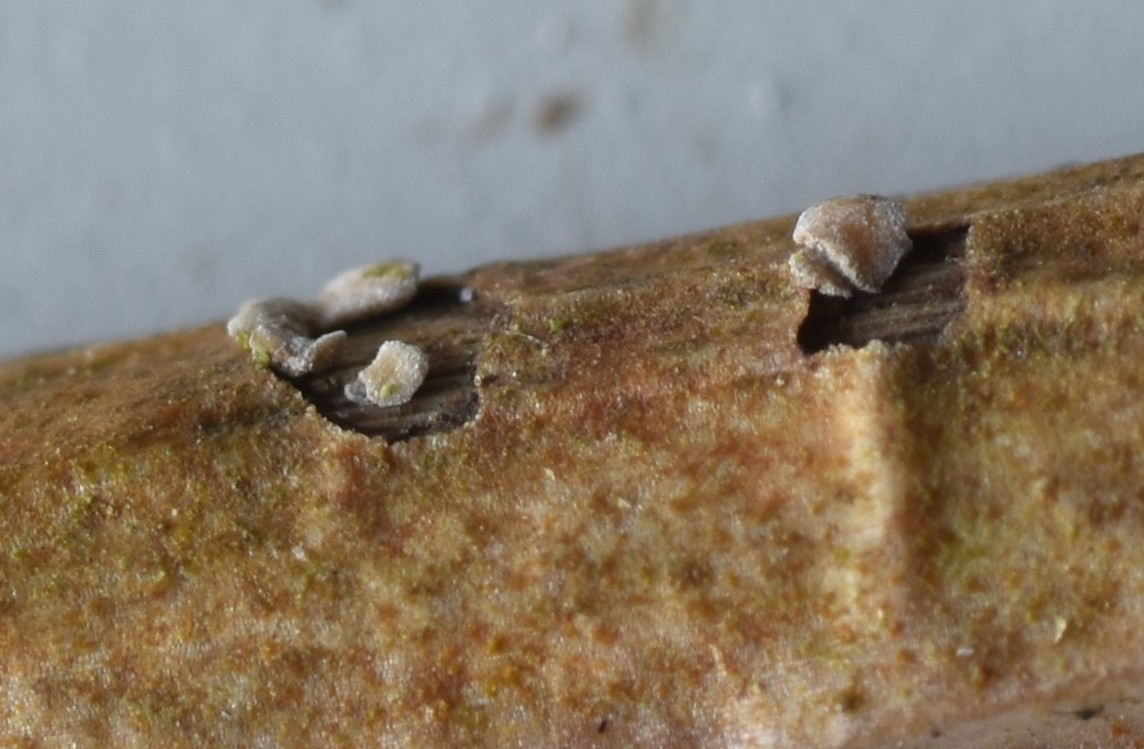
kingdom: Fungi
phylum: Ascomycota
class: Leotiomycetes
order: Helotiales
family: Pezizellaceae
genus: Pezizella
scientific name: Pezizella
